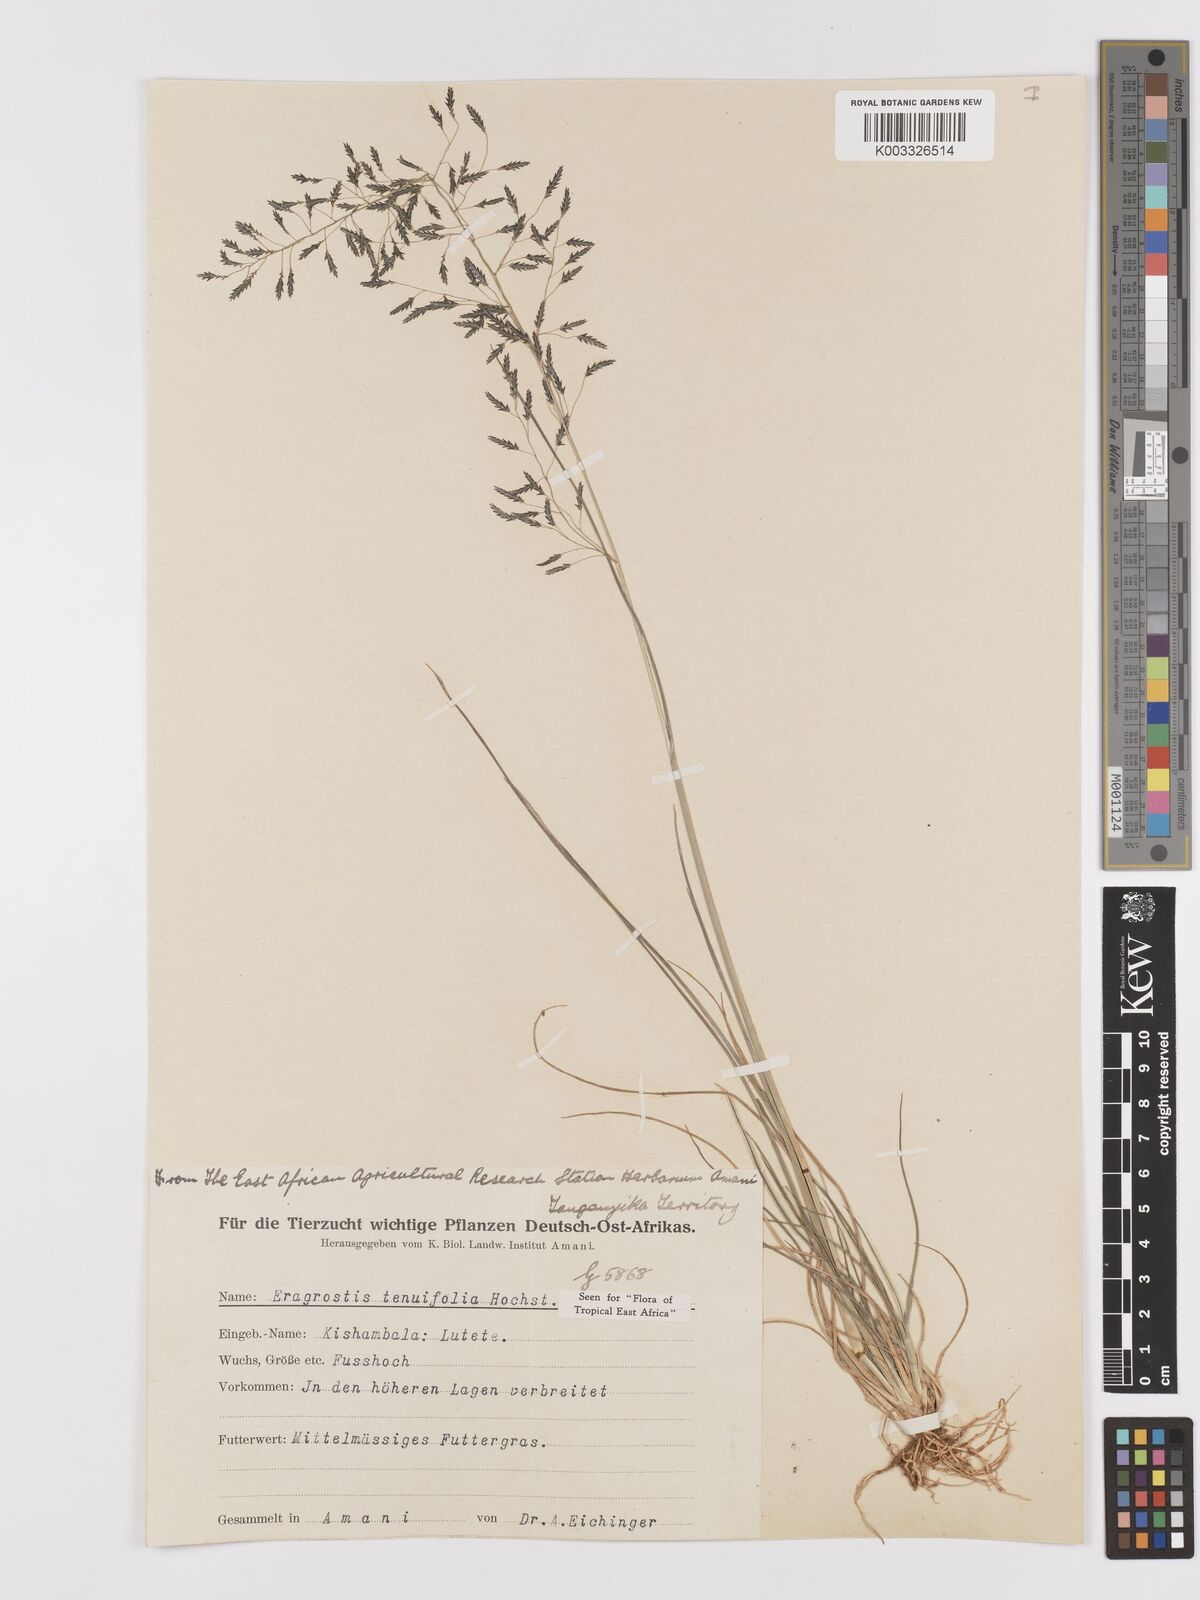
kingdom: Plantae
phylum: Tracheophyta
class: Liliopsida
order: Poales
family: Poaceae
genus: Eragrostis
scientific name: Eragrostis tenuifolia
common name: Elastic grass
